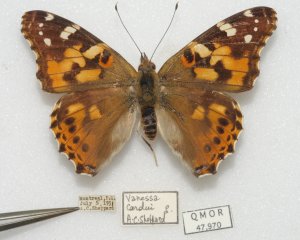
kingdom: Animalia
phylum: Arthropoda
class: Insecta
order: Lepidoptera
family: Nymphalidae
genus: Vanessa
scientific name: Vanessa cardui
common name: Painted Lady
